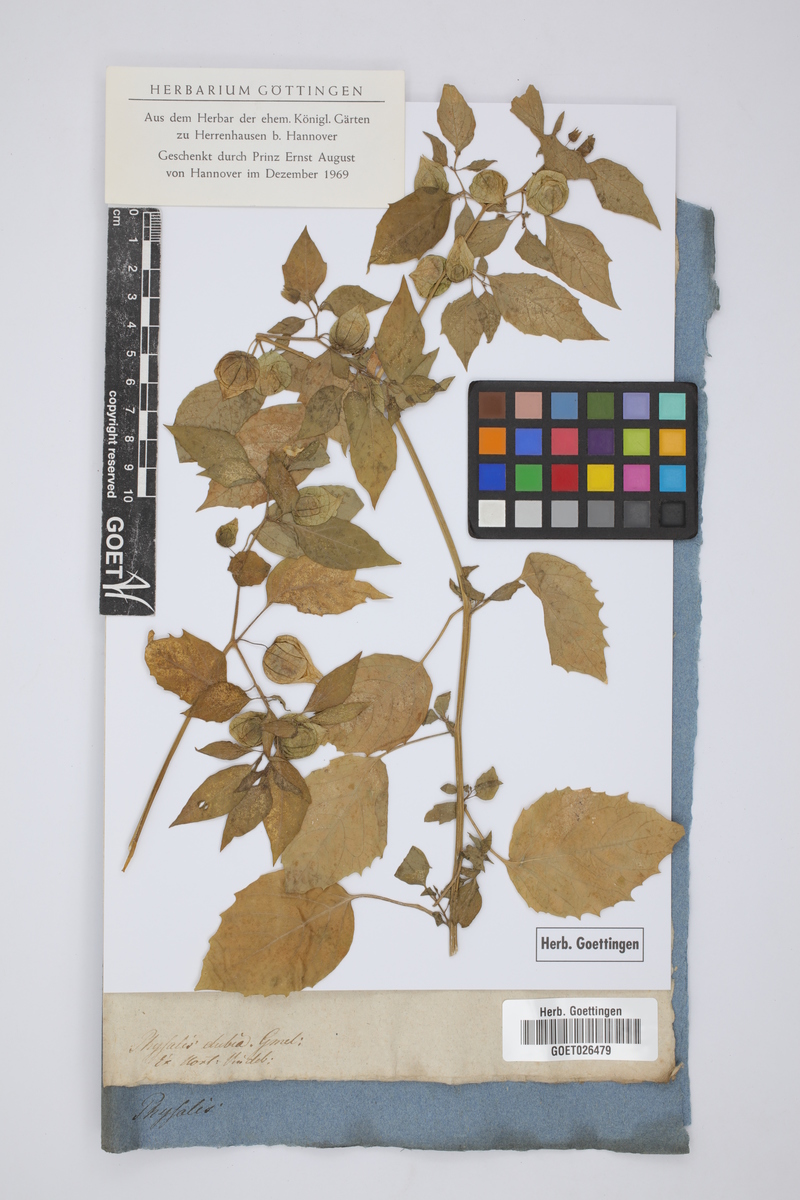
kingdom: Plantae
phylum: Tracheophyta
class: Magnoliopsida
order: Solanales
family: Solanaceae
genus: Physalis
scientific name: Physalis angulata
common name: Angular winter-cherry
